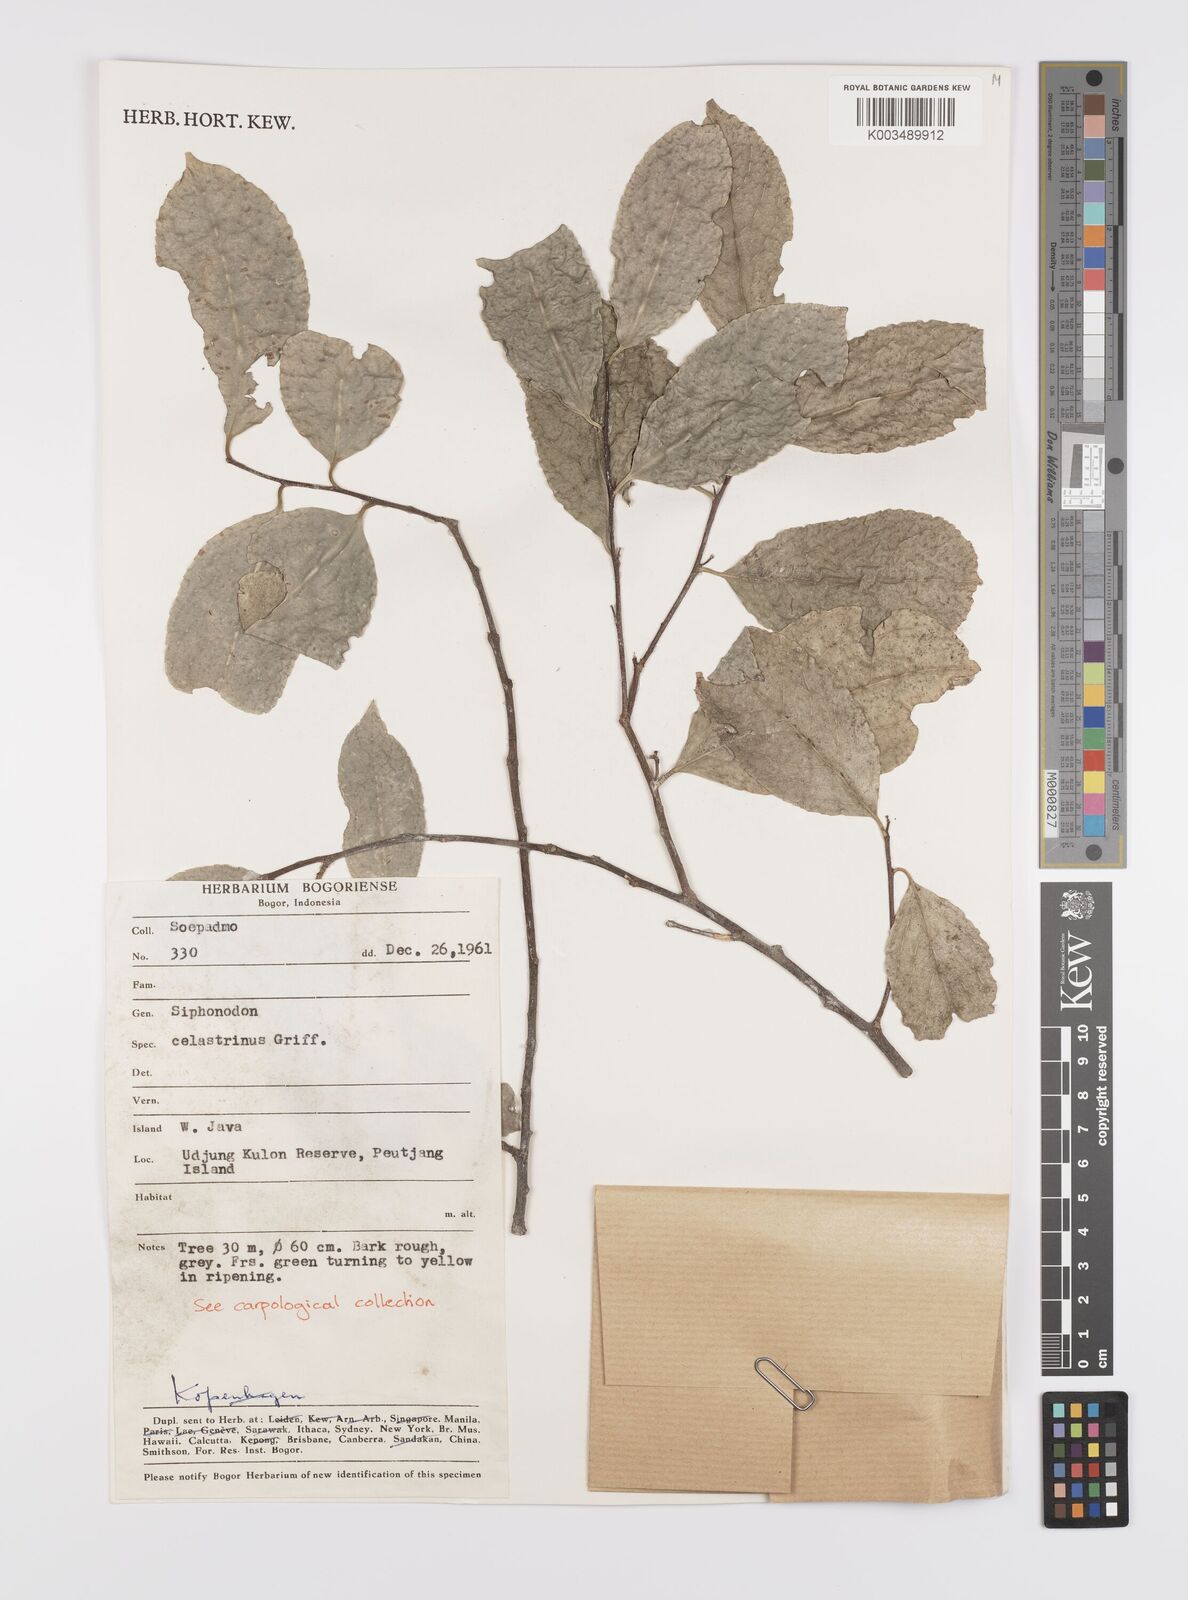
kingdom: Plantae
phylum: Tracheophyta
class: Magnoliopsida
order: Celastrales
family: Celastraceae
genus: Siphonodon
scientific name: Siphonodon celastrineus
